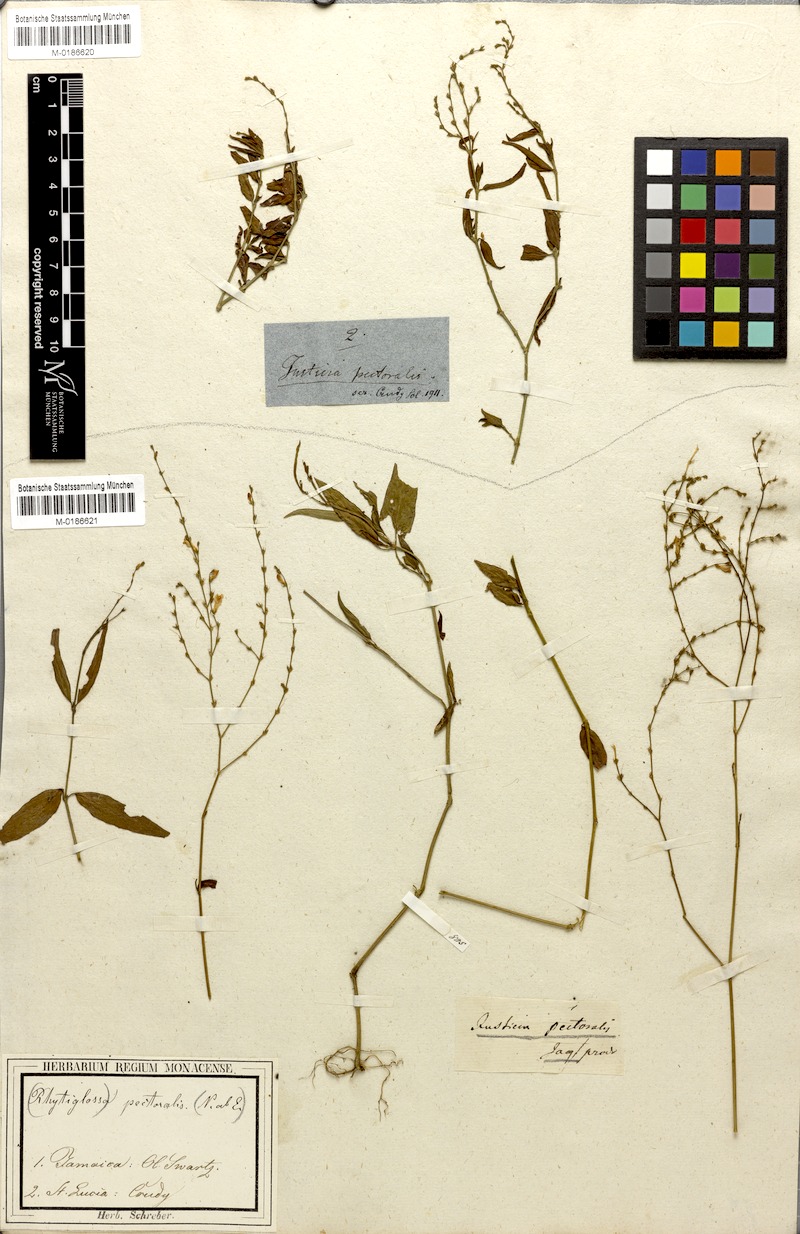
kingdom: Plantae
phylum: Tracheophyta
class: Magnoliopsida
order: Lamiales
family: Acanthaceae
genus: Dianthera
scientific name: Dianthera pectoralis
